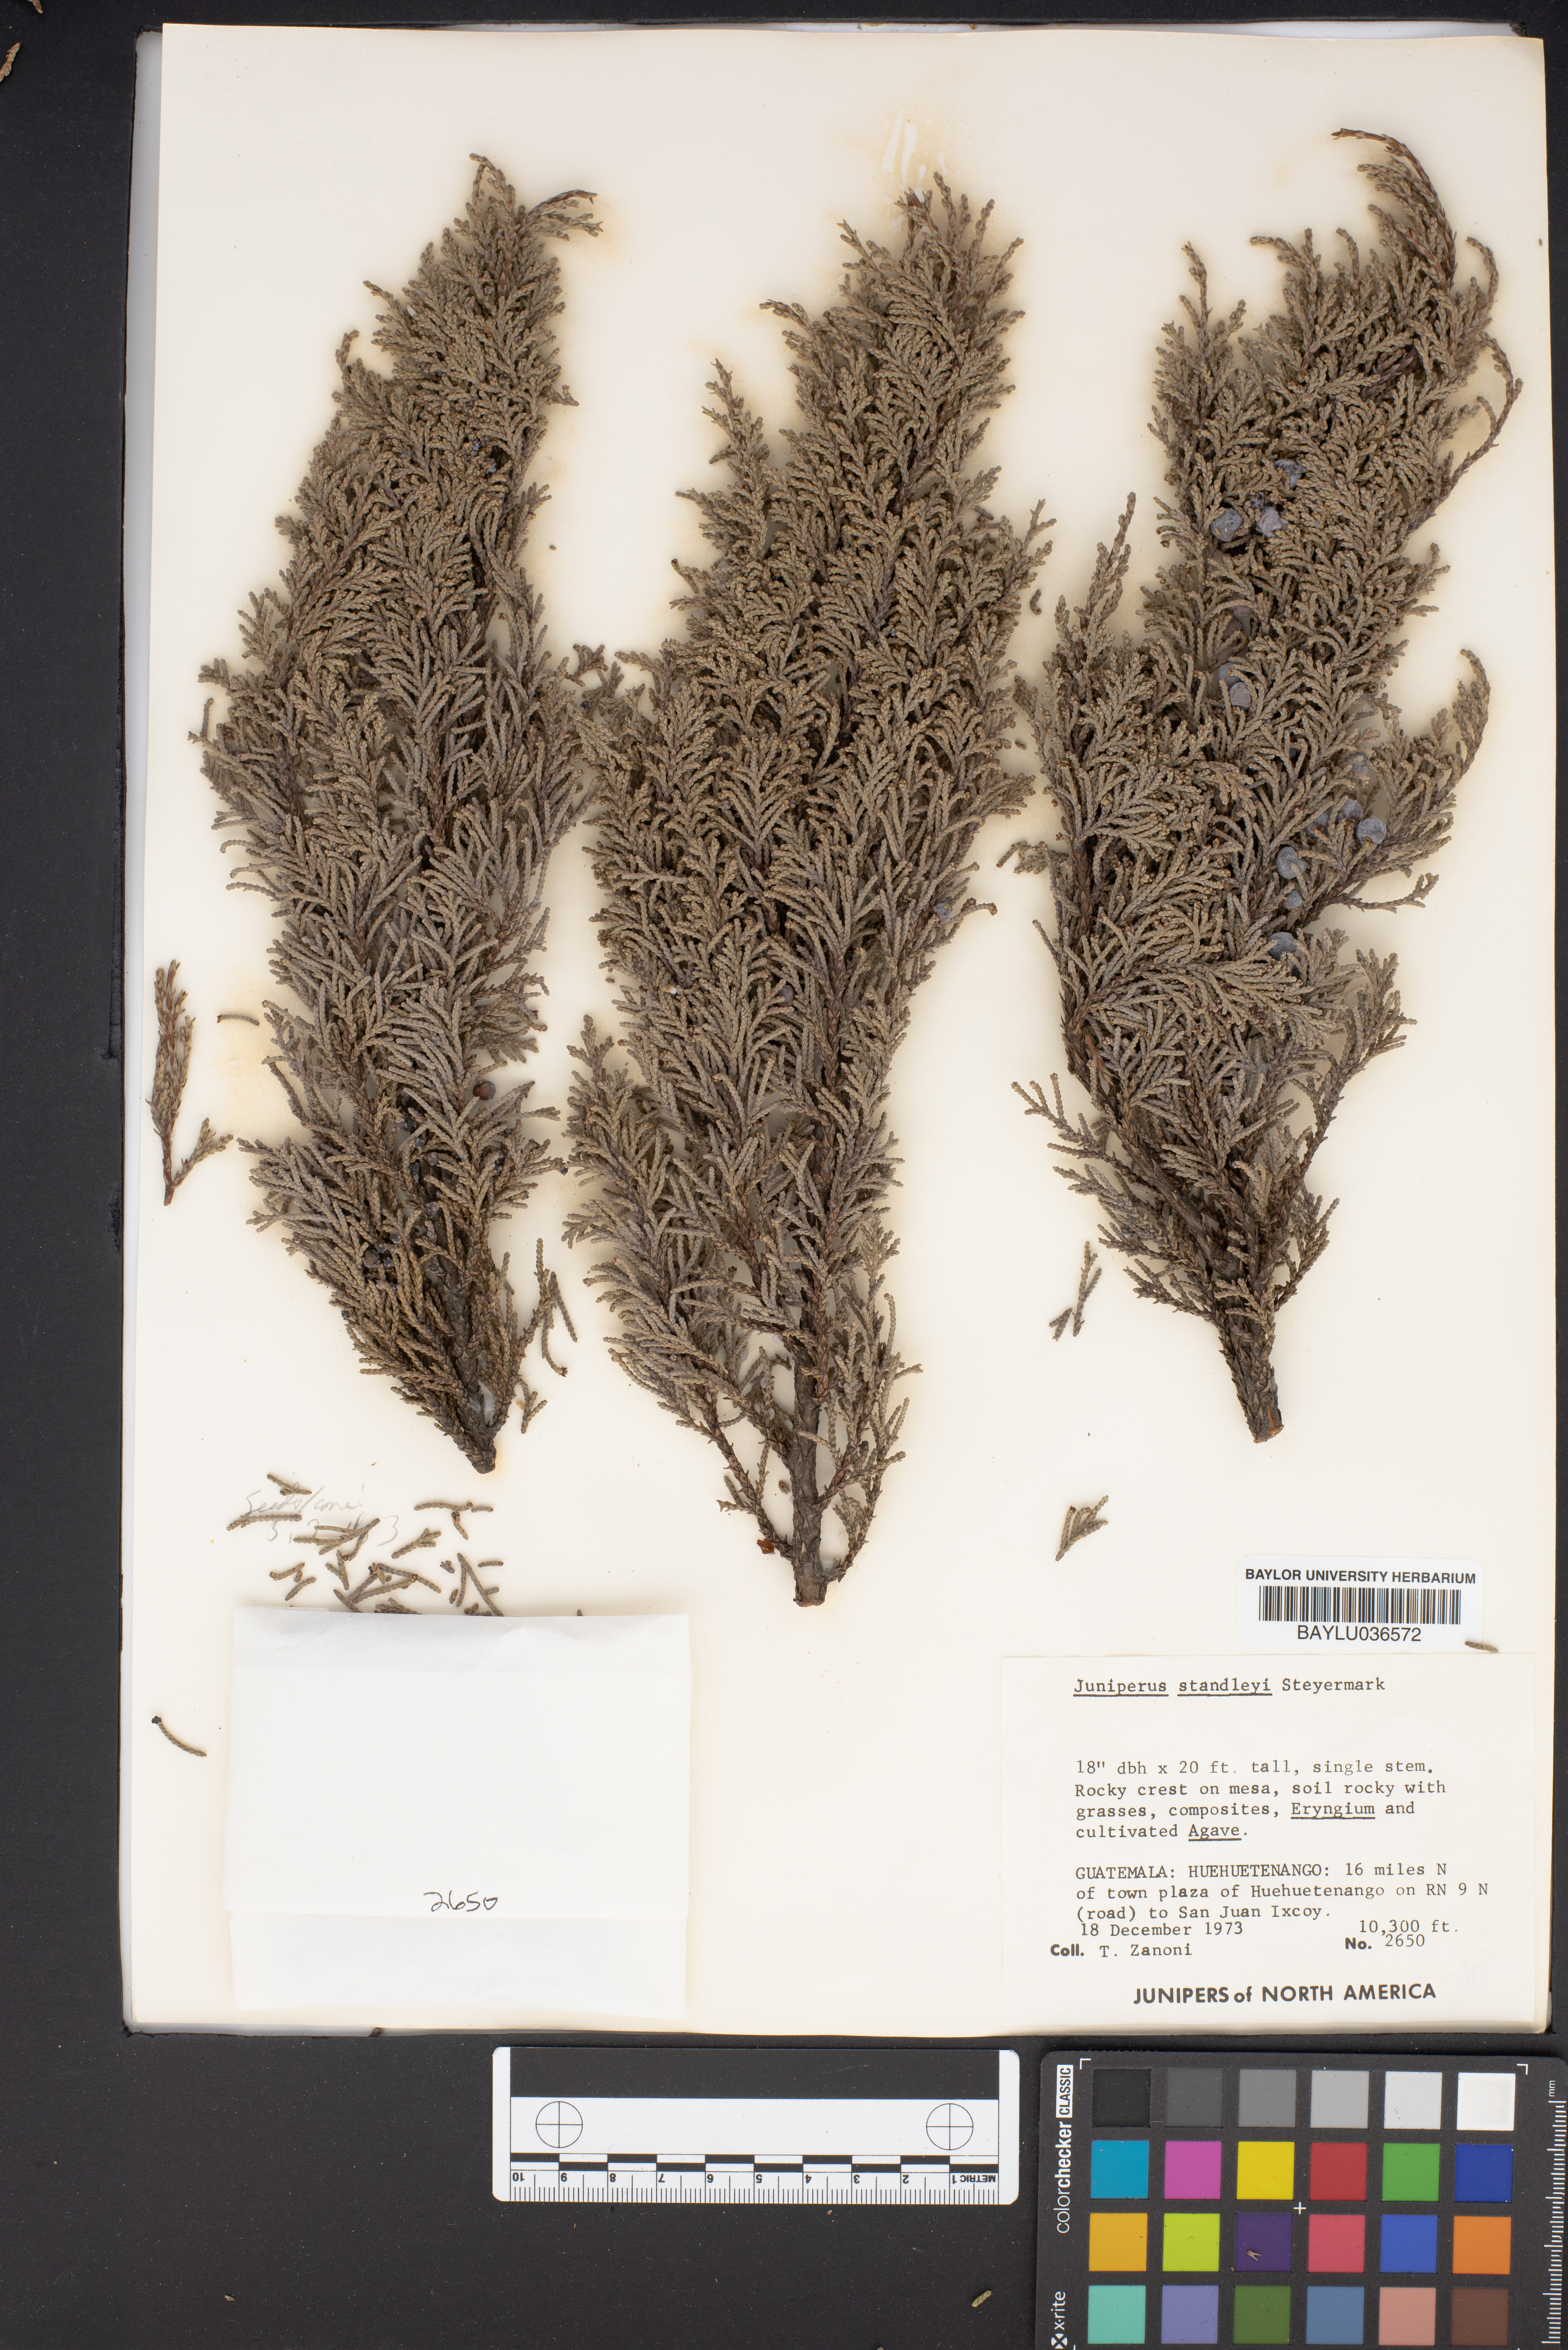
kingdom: Plantae
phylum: Tracheophyta
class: Pinopsida
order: Pinales
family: Cupressaceae
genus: Juniperus
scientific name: Juniperus standleyi
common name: Standley juniper
